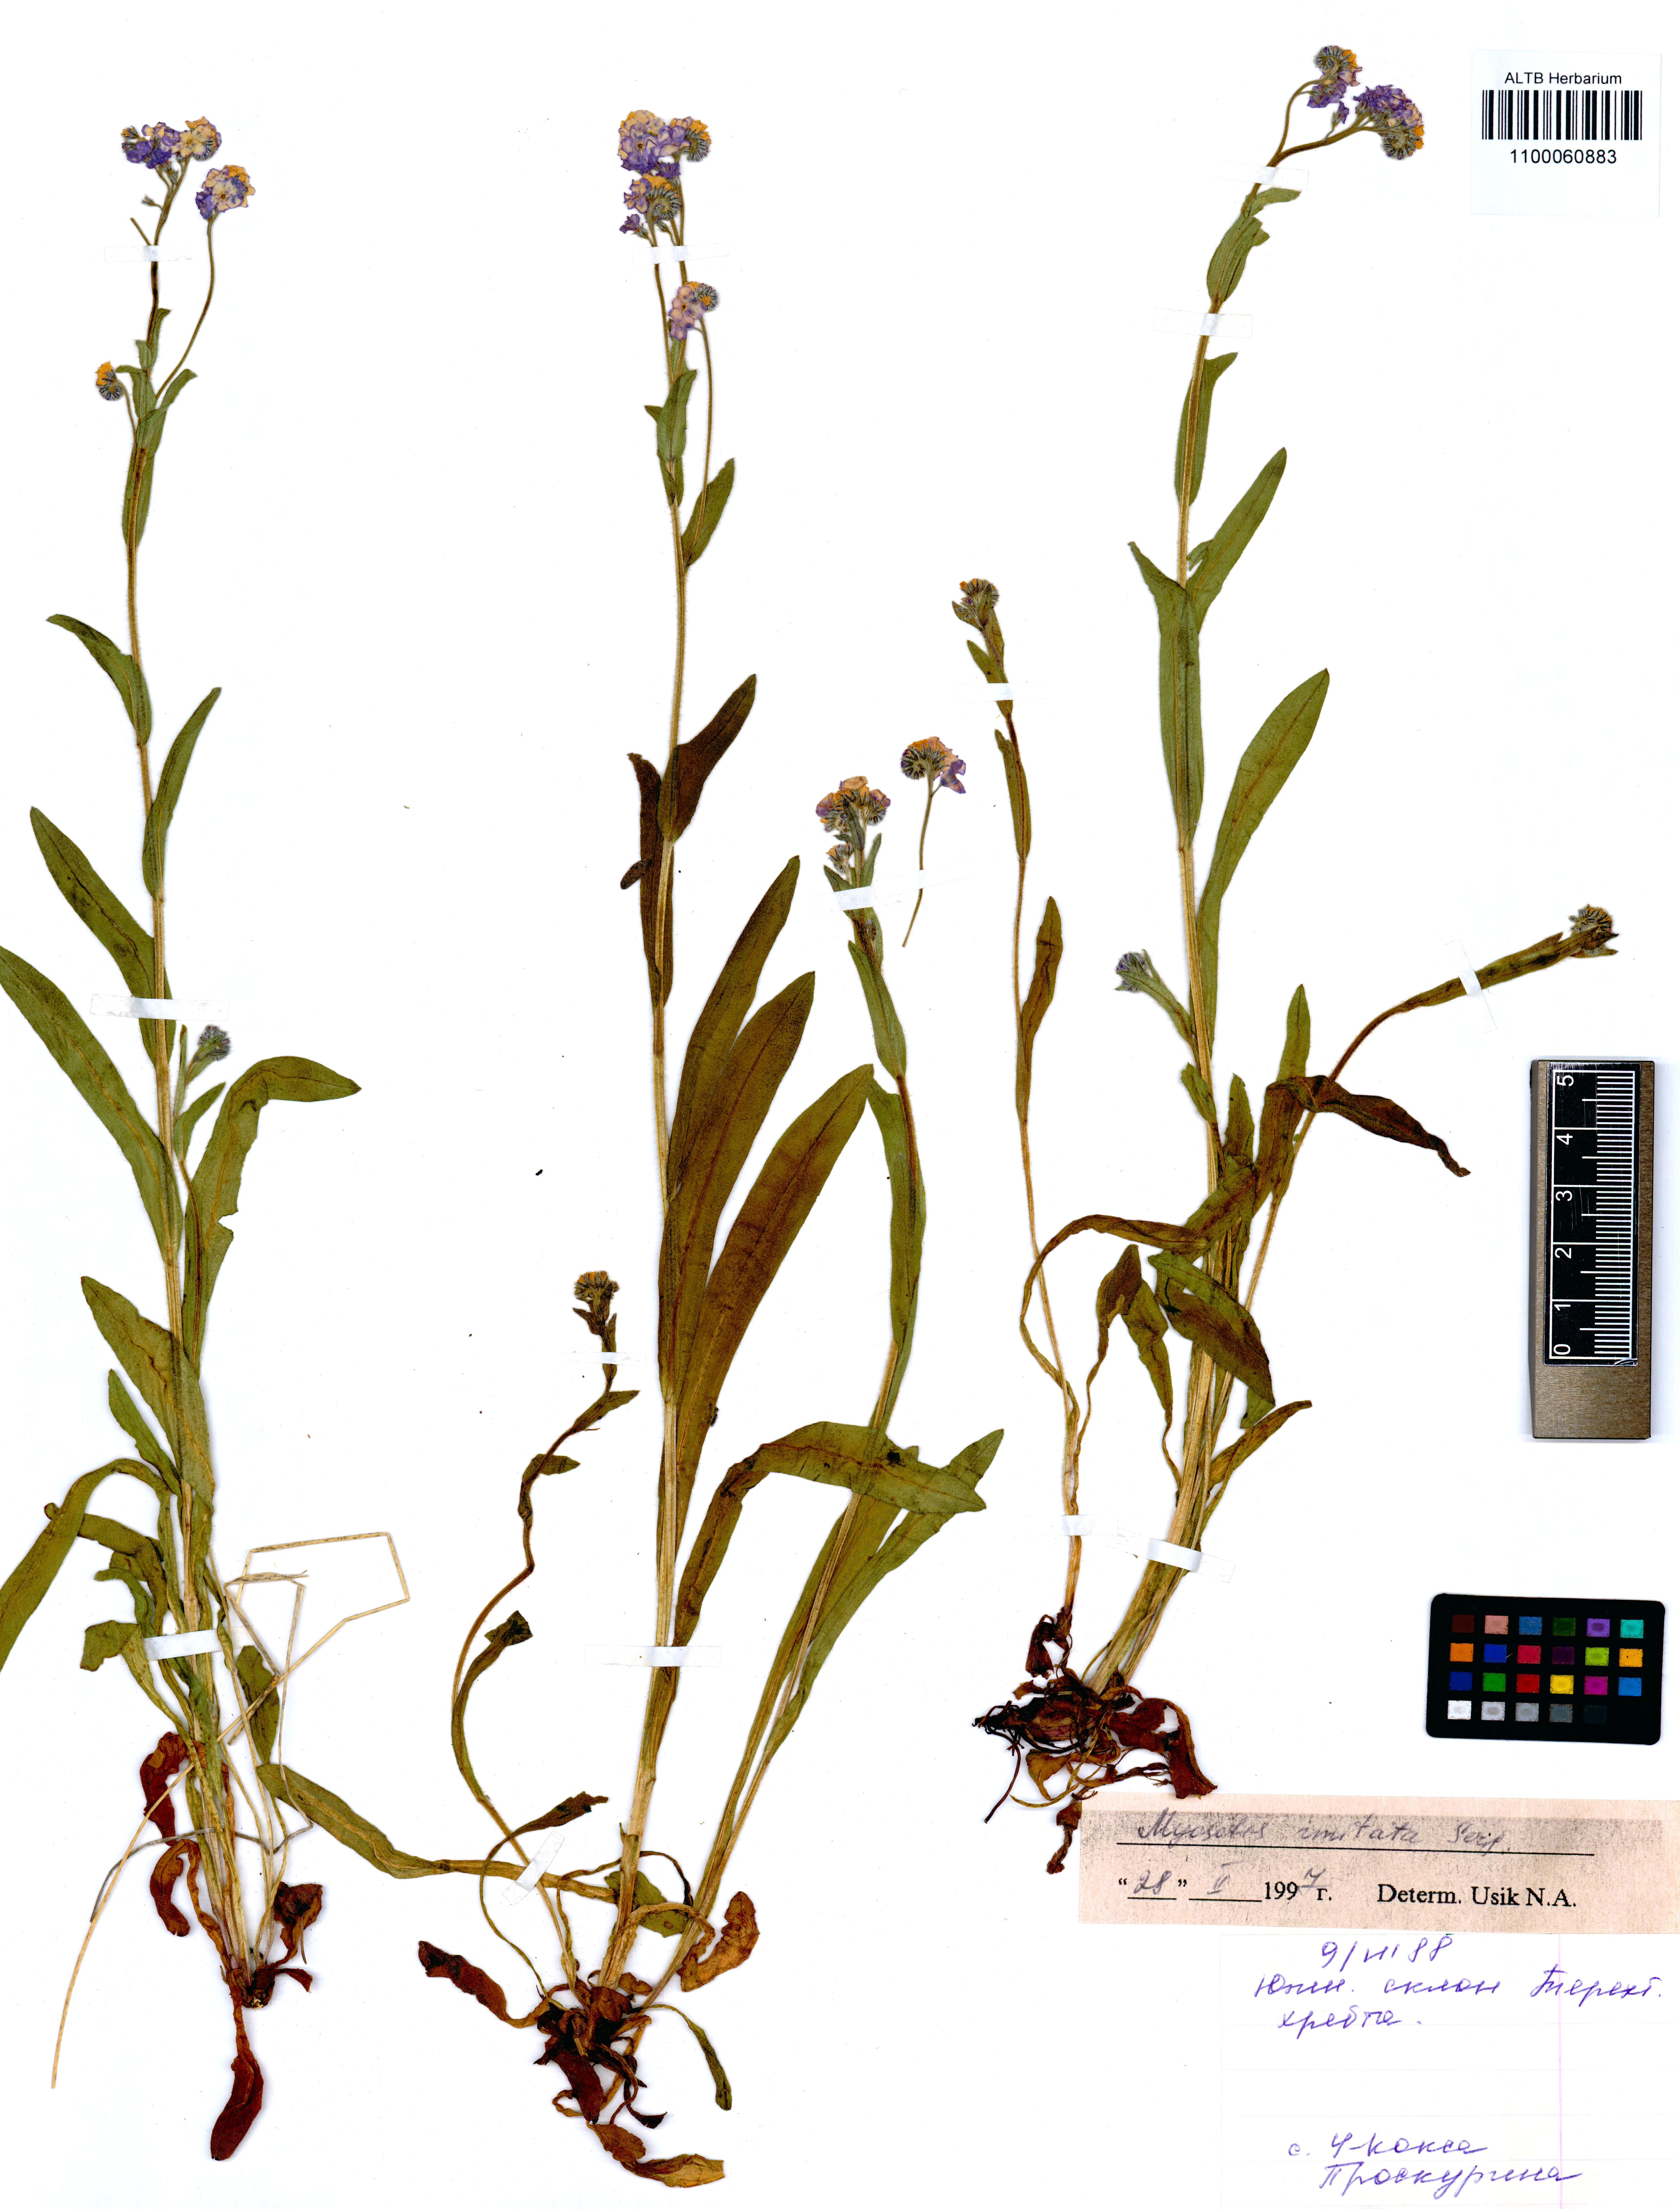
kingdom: Plantae
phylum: Tracheophyta
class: Magnoliopsida
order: Boraginales
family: Boraginaceae
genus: Myosotis
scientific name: Myosotis imitata
